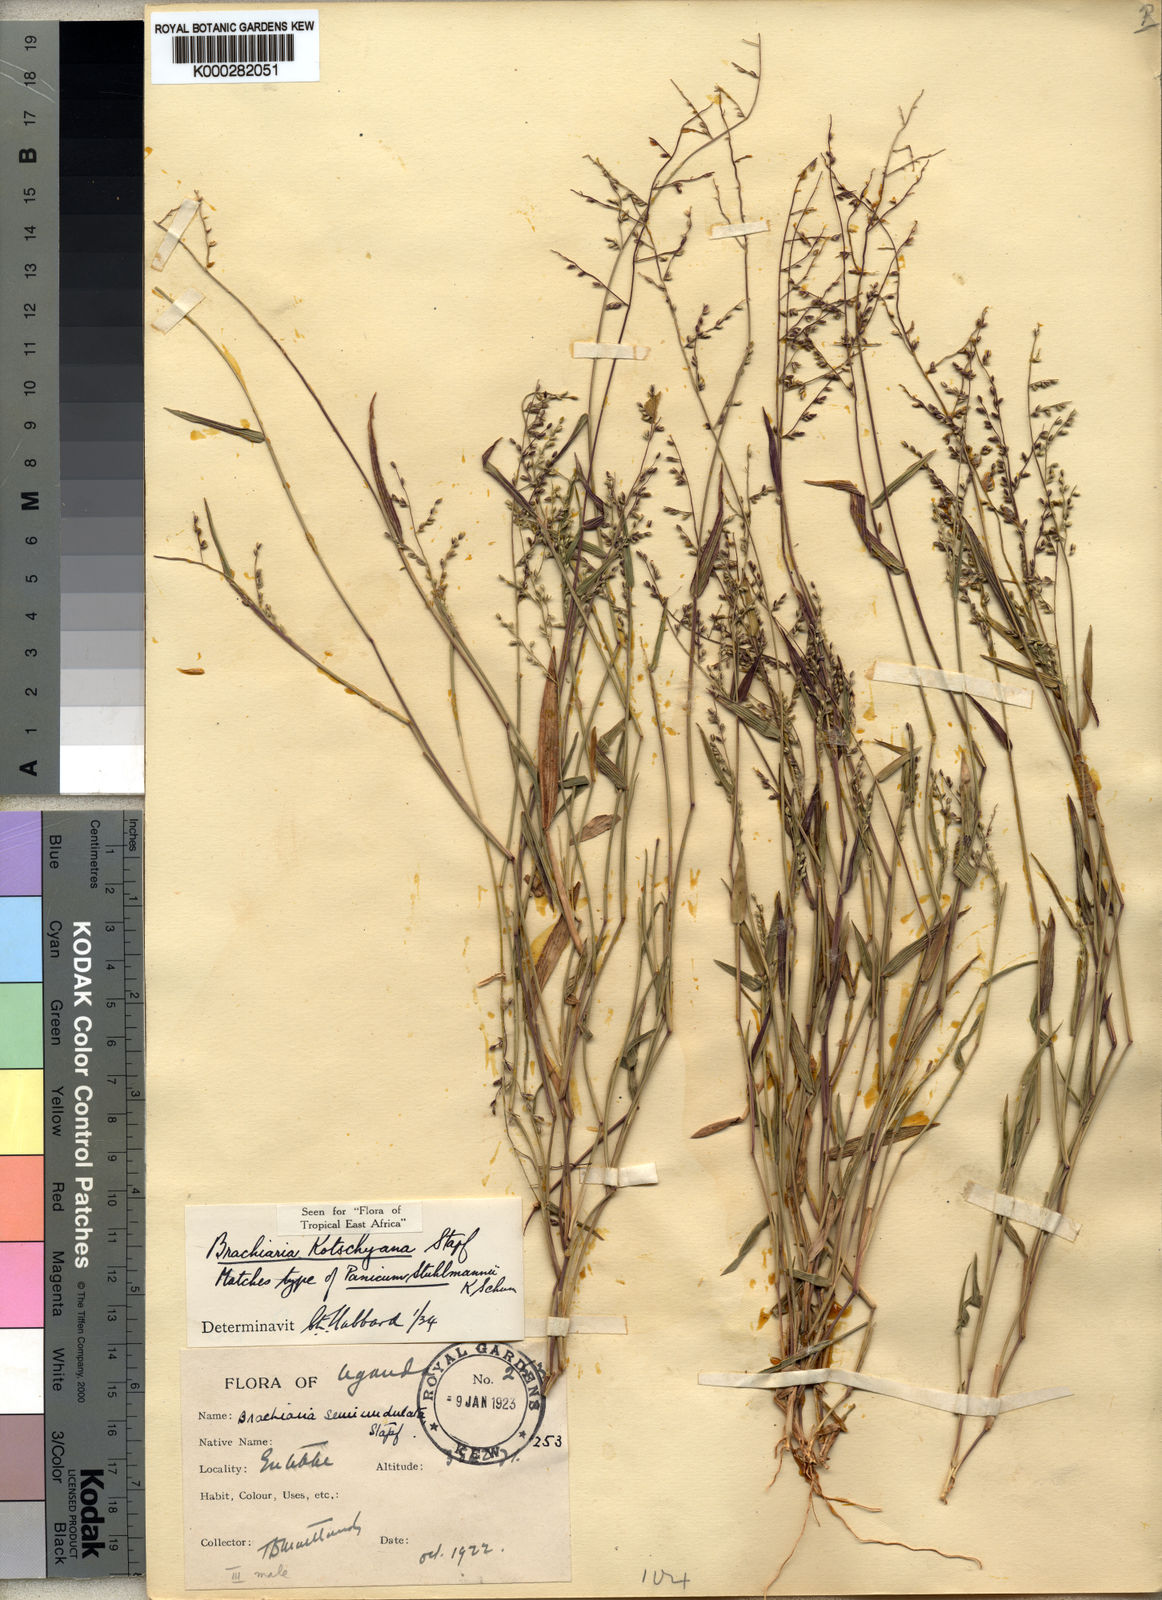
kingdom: Plantae
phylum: Tracheophyta
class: Liliopsida
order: Poales
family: Poaceae
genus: Urochloa
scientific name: Urochloa comata
